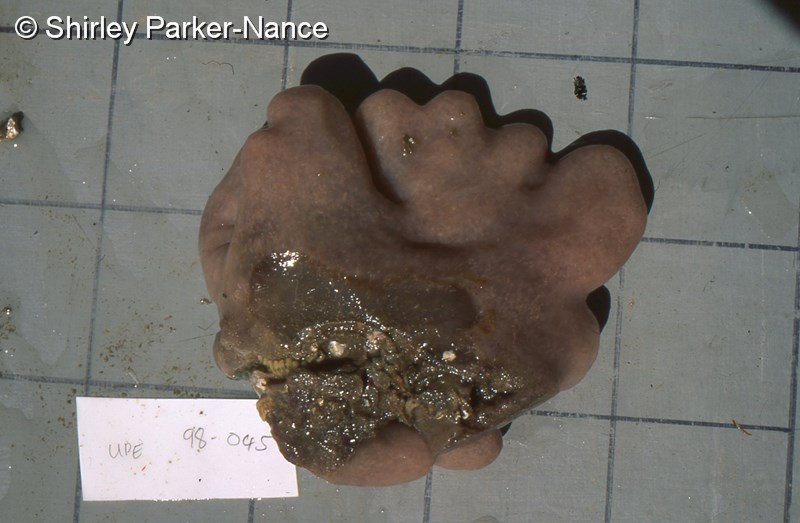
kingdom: Animalia
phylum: Chordata
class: Ascidiacea
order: Aplousobranchia
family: Pseudodistomidae
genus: Pseudodistoma
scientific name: Pseudodistoma africanum
